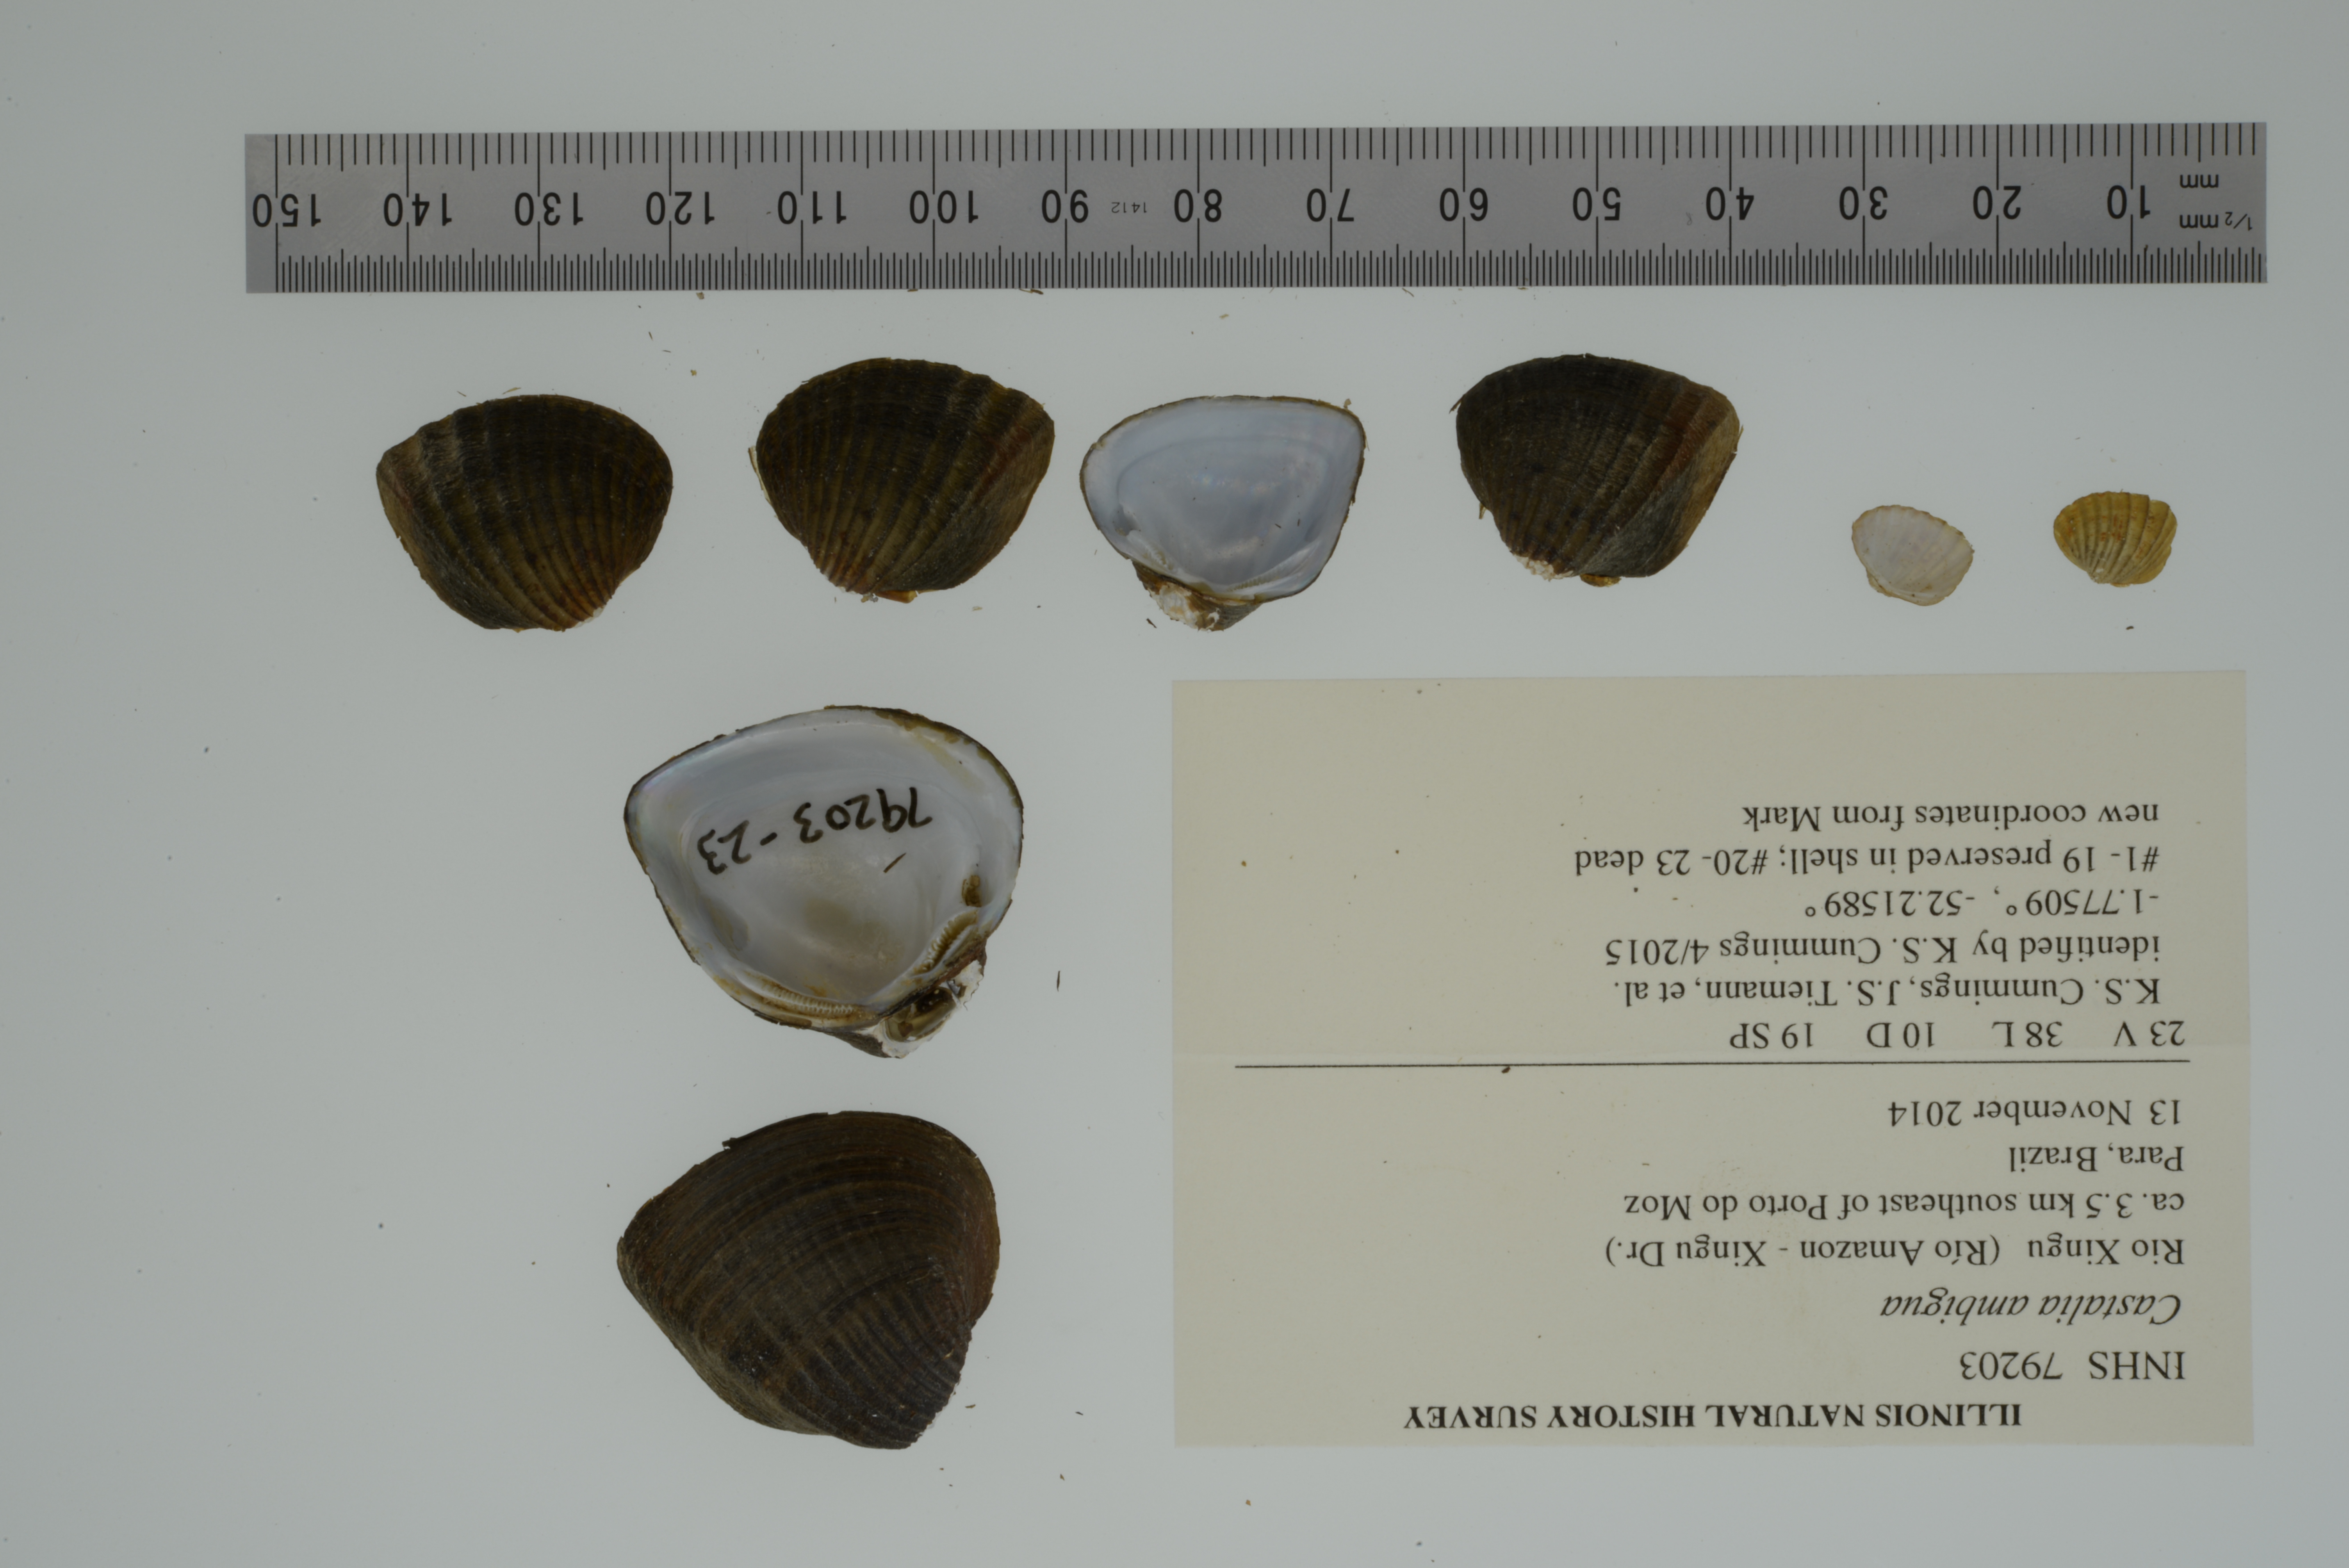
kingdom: Animalia
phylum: Mollusca
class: Bivalvia
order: Unionida
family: Hyriidae
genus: Castalia
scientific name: Castalia ambigua
